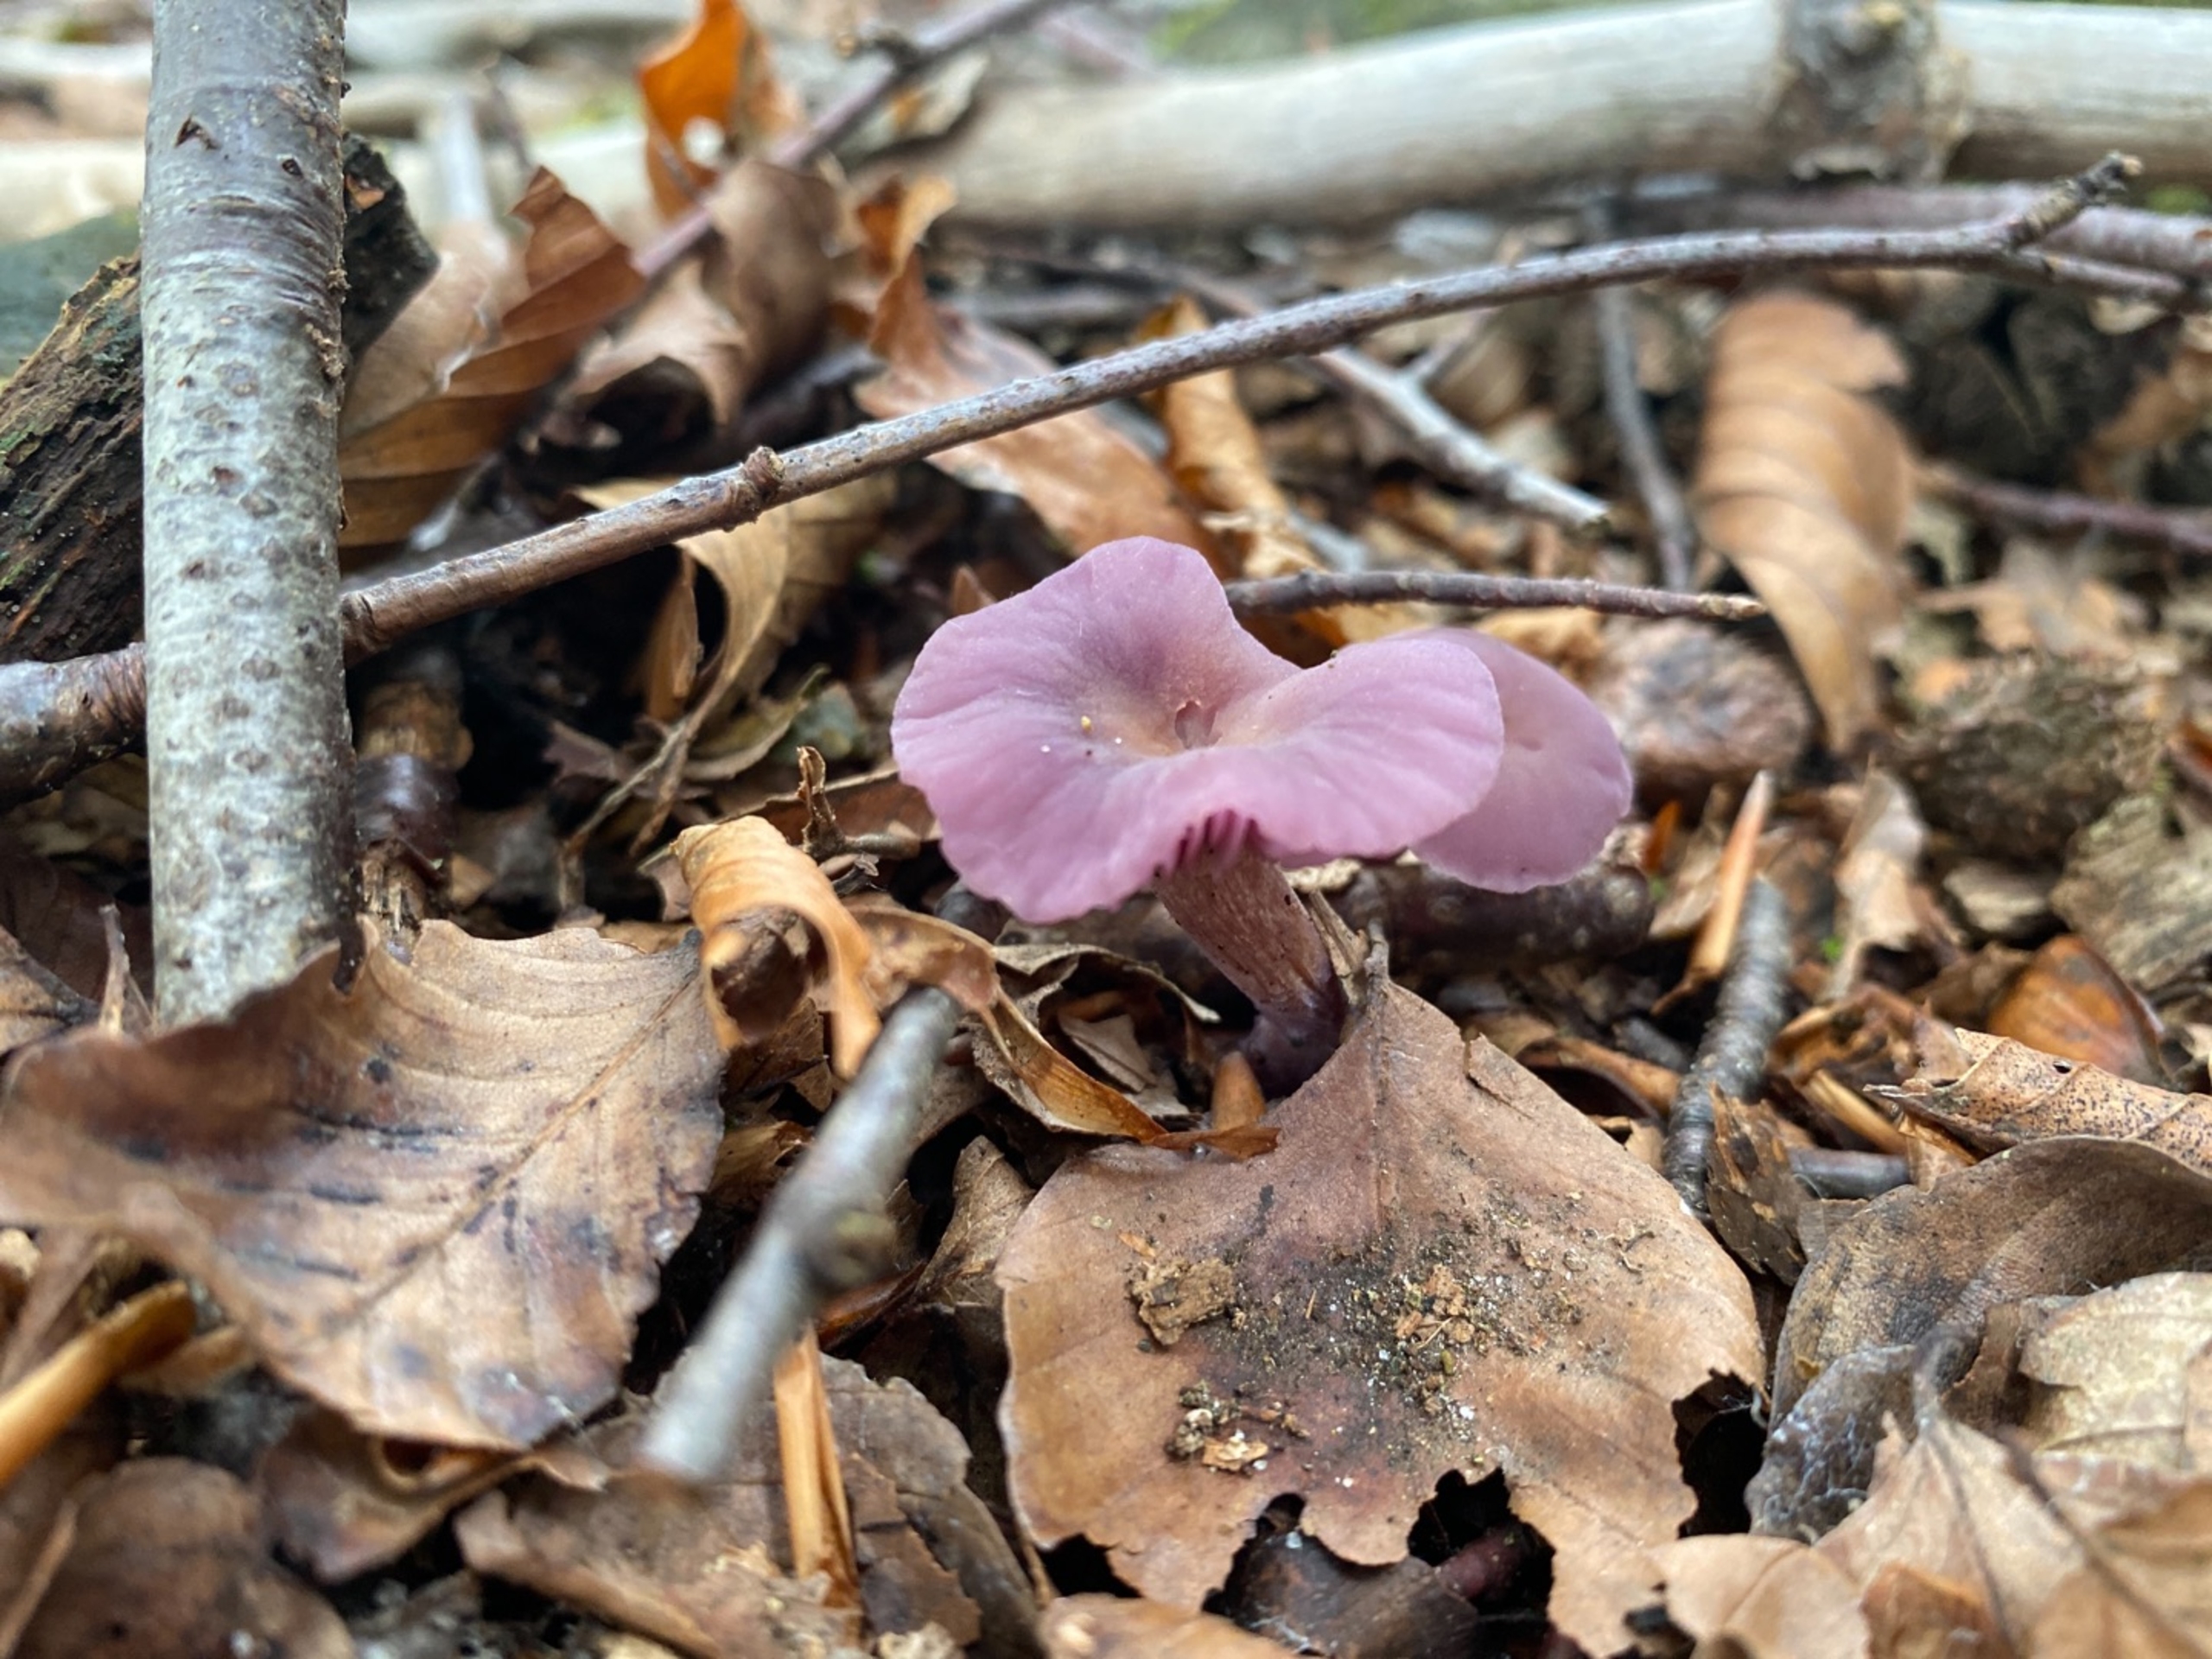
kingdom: Fungi
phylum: Basidiomycota
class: Agaricomycetes
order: Agaricales
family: Hydnangiaceae
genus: Laccaria
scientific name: Laccaria amethystina
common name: Violet ametysthat
